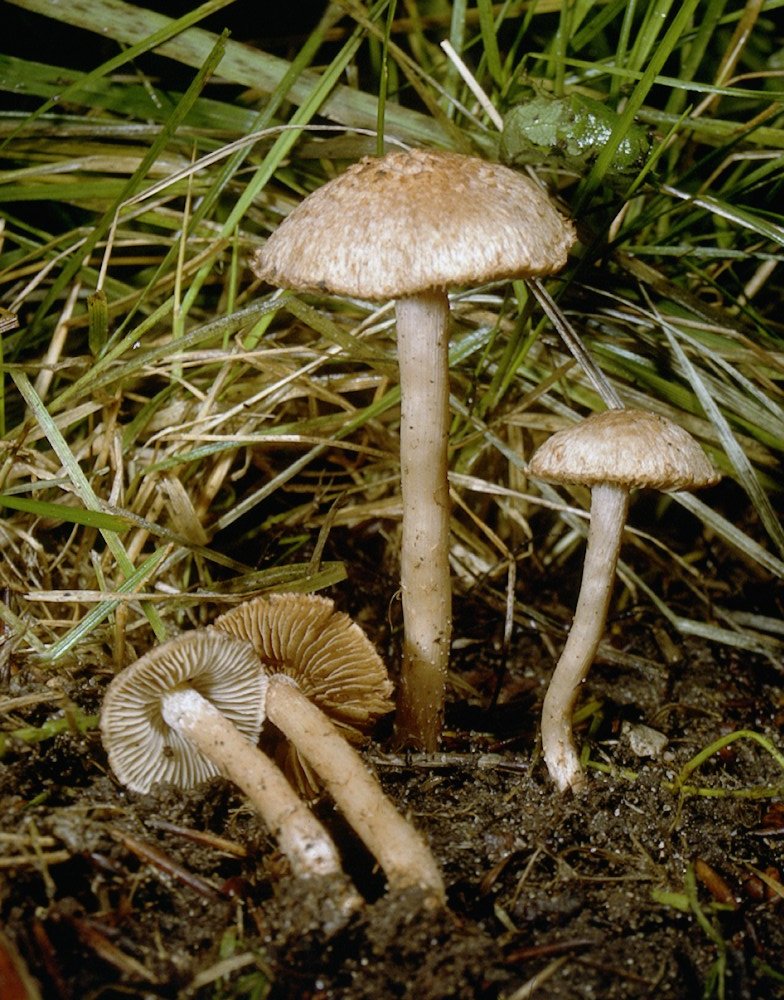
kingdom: Fungi
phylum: Basidiomycota
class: Agaricomycetes
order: Agaricales
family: Inocybaceae
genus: Inosperma
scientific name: Inosperma bongardii
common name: Bongards trævlhat
